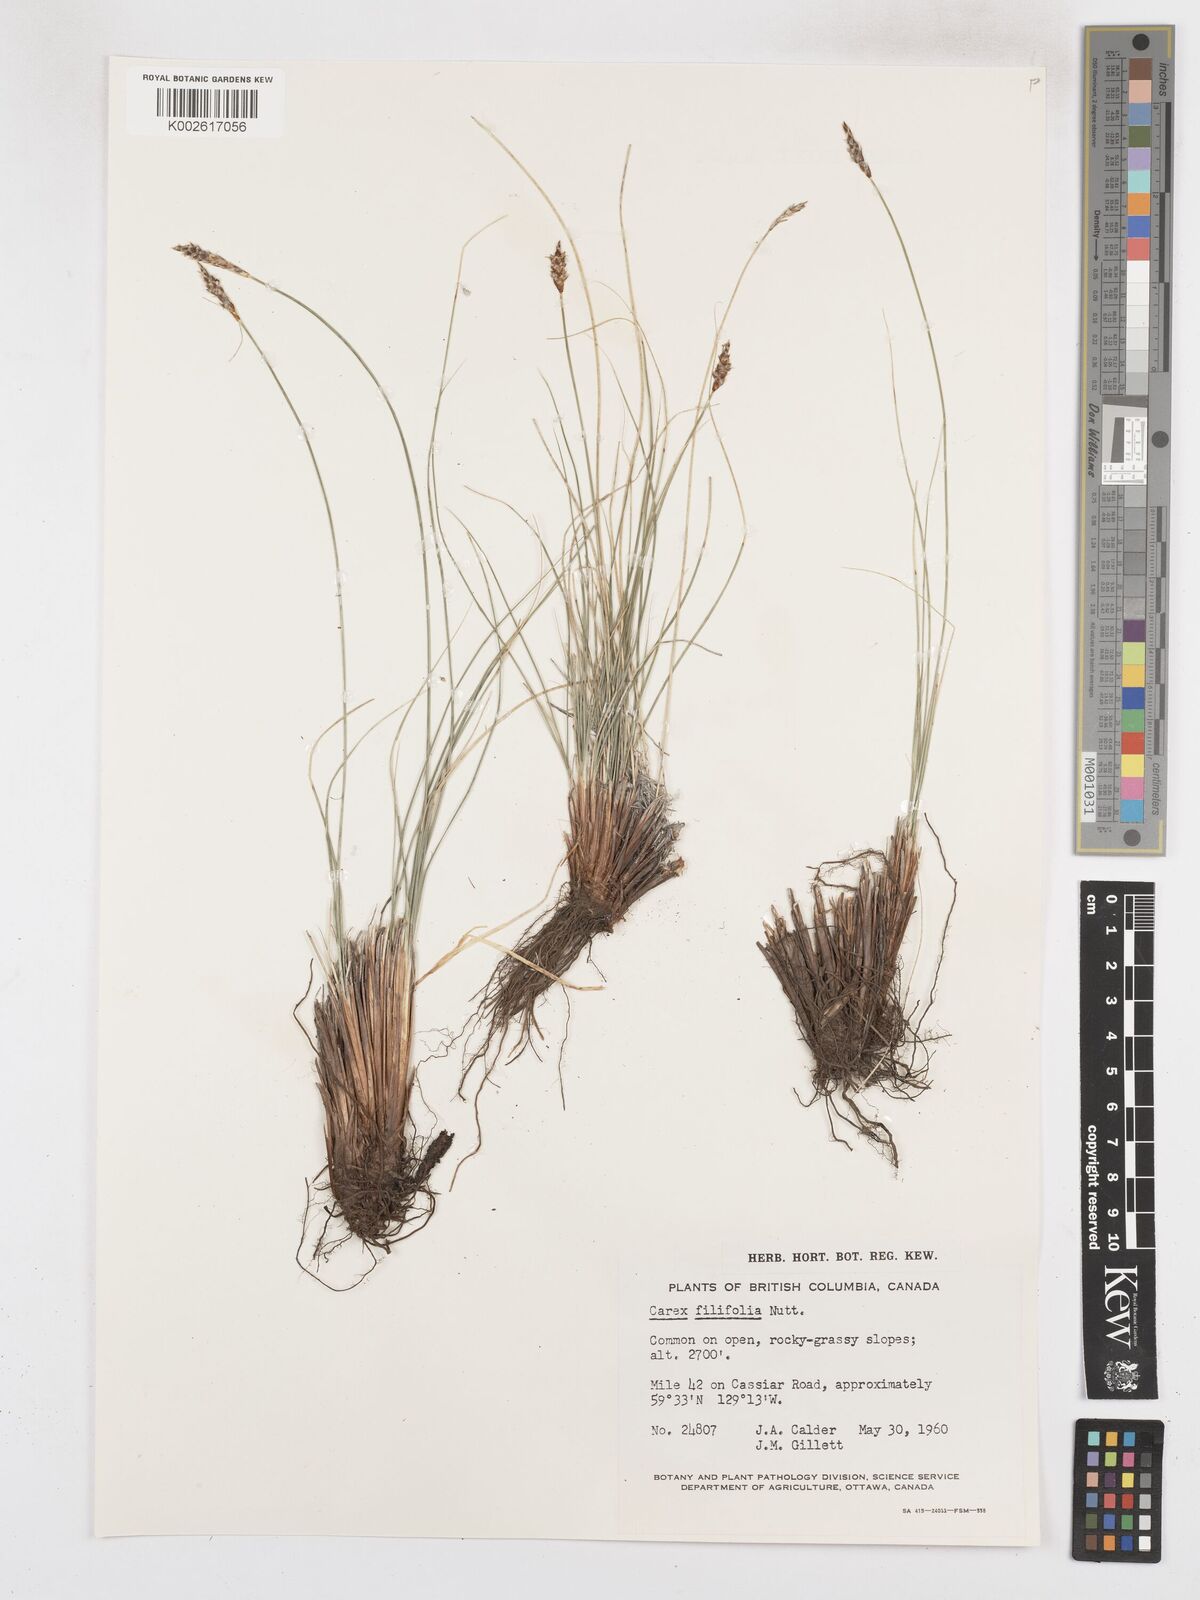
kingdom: Plantae
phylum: Tracheophyta
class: Liliopsida
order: Poales
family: Cyperaceae
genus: Carex
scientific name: Carex filifolia
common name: Threadleaf sedge
